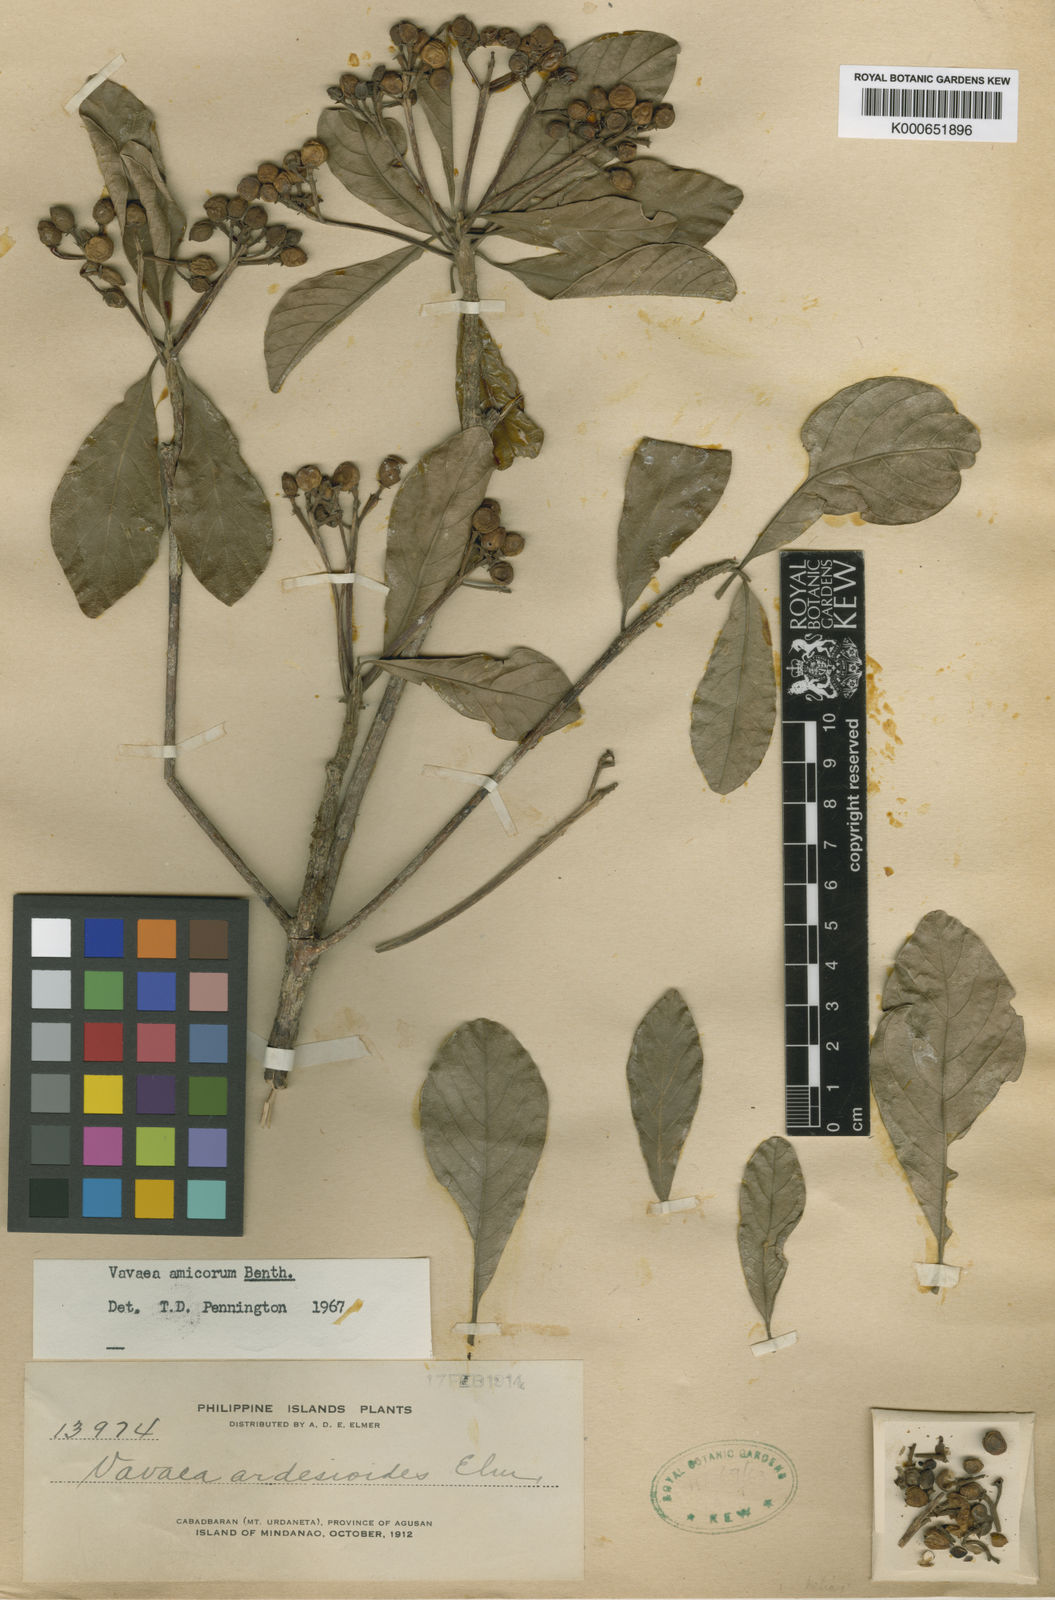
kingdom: Plantae
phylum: Tracheophyta
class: Magnoliopsida
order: Sapindales
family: Meliaceae
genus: Vavaea
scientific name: Vavaea amicorum
